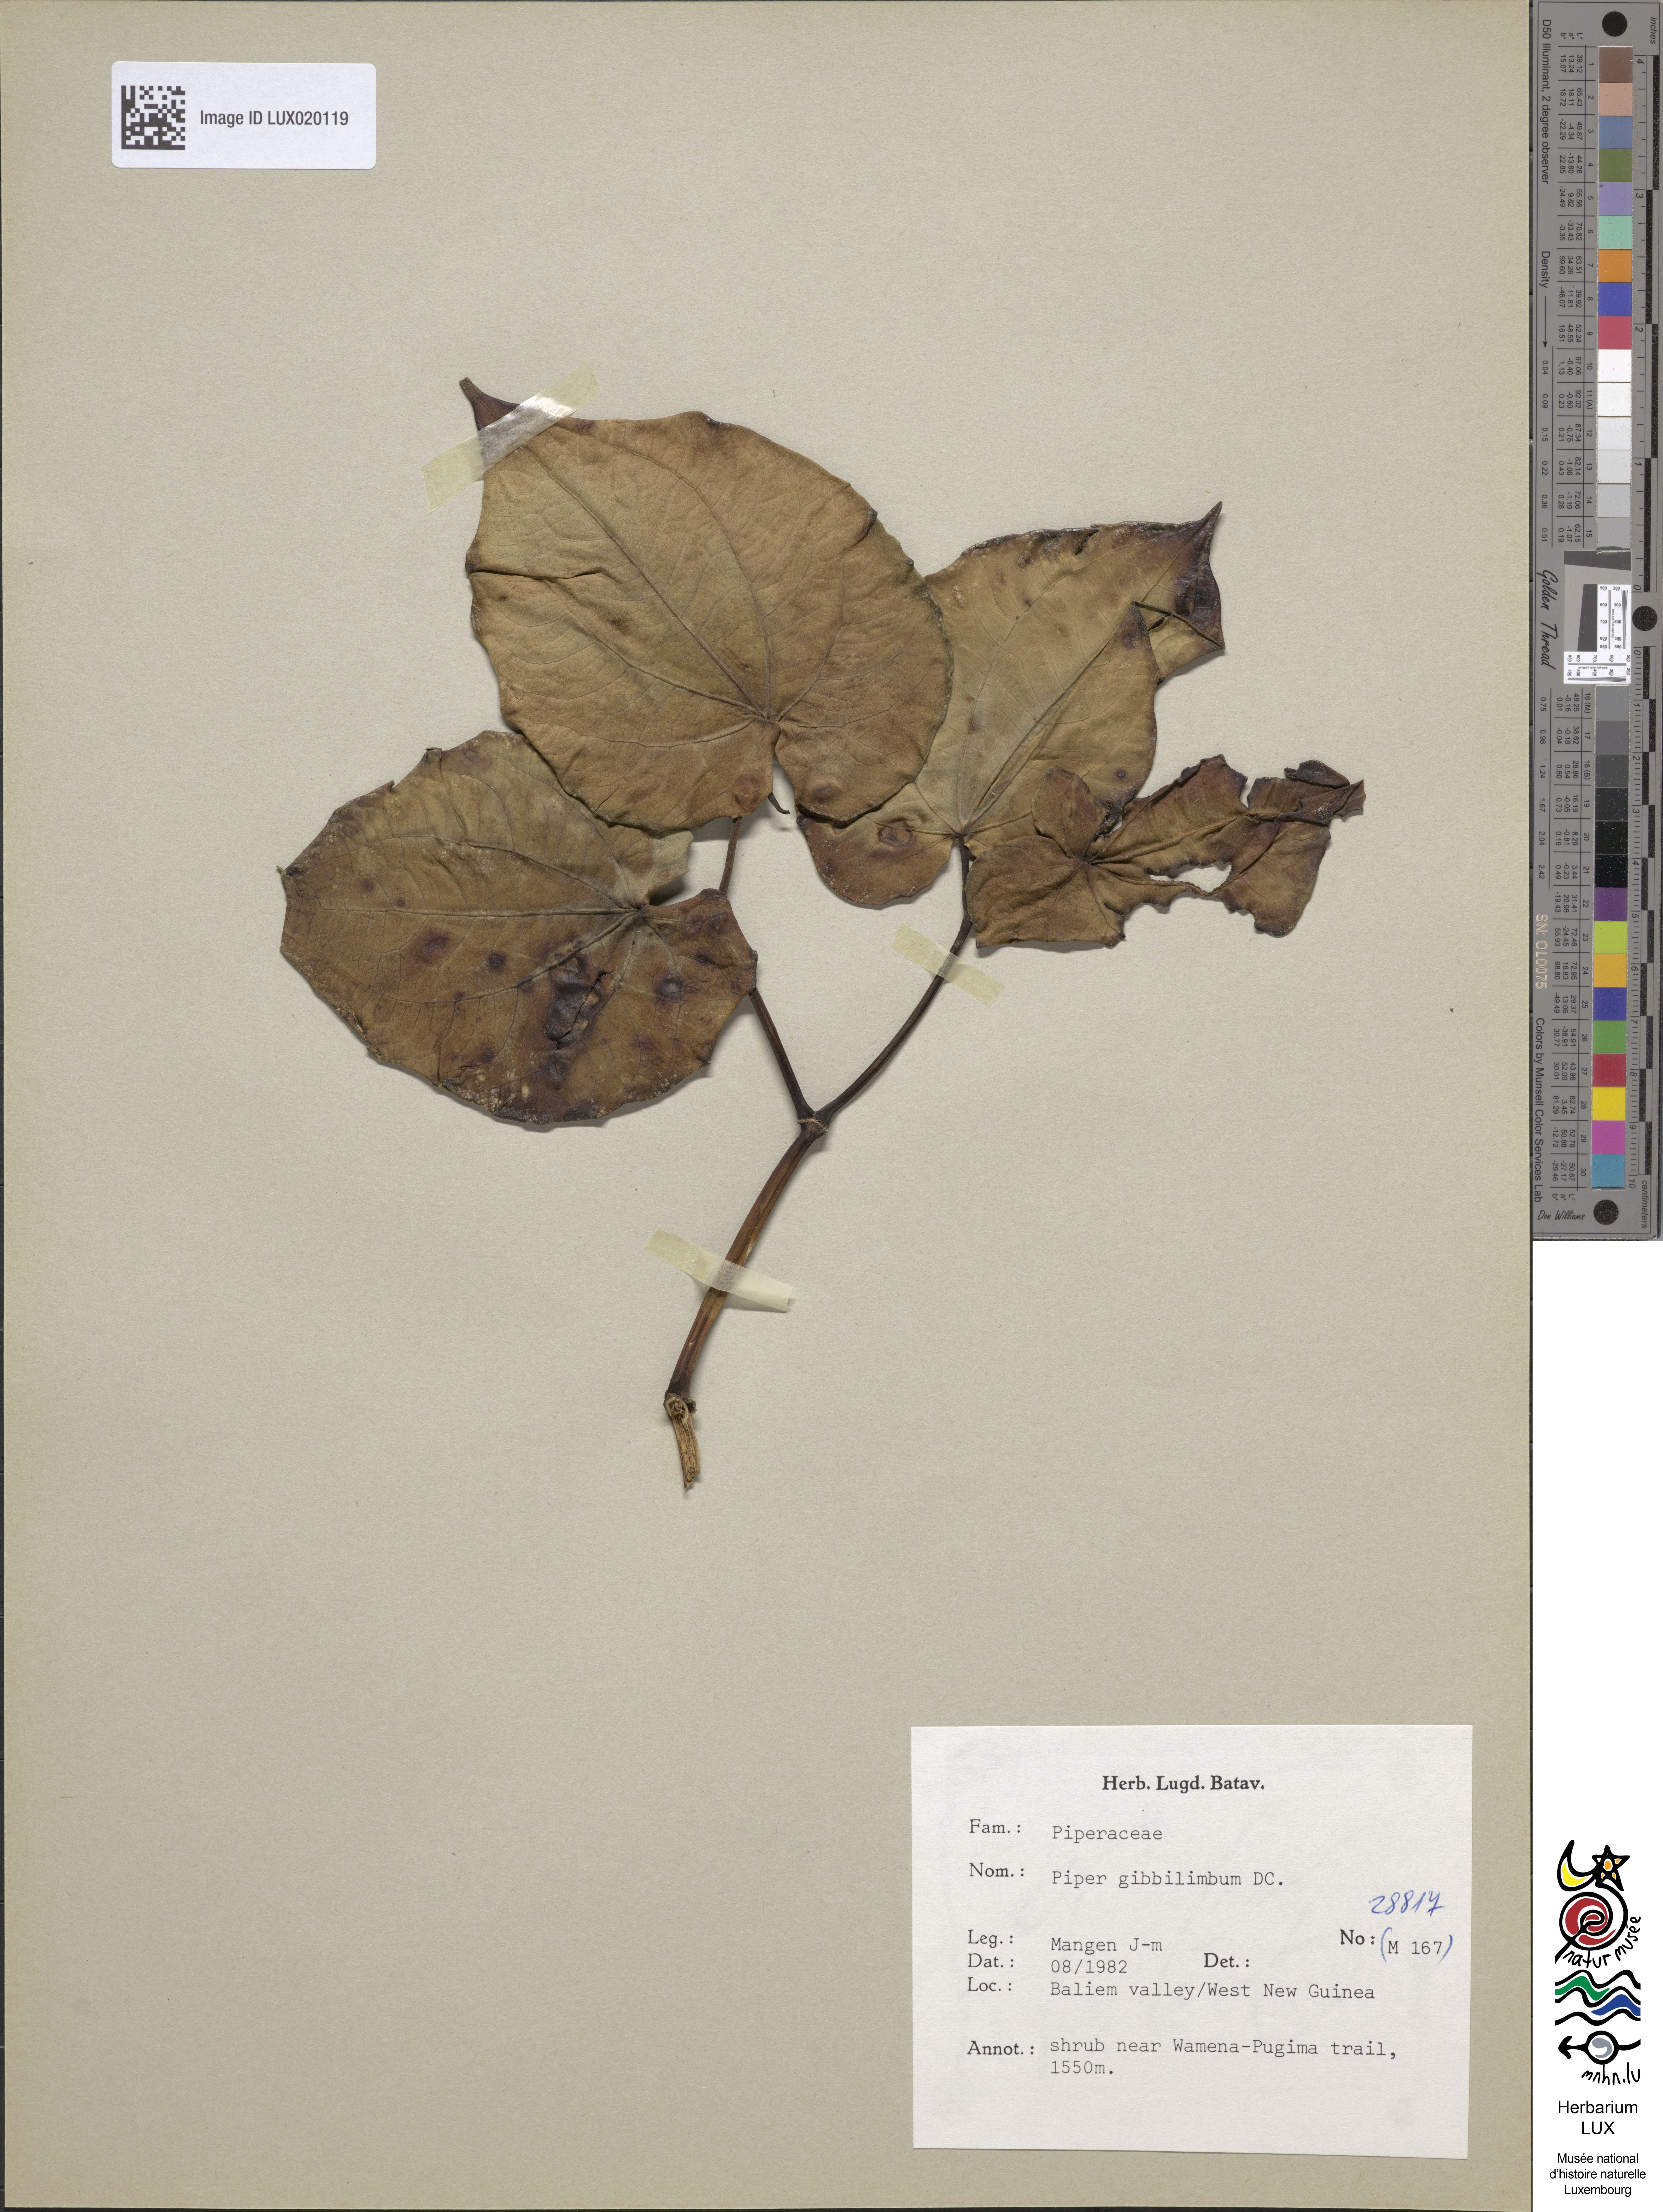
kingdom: Plantae
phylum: Tracheophyta
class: Magnoliopsida
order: Piperales
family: Piperaceae
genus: Piper
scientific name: Piper gibbilimbum
